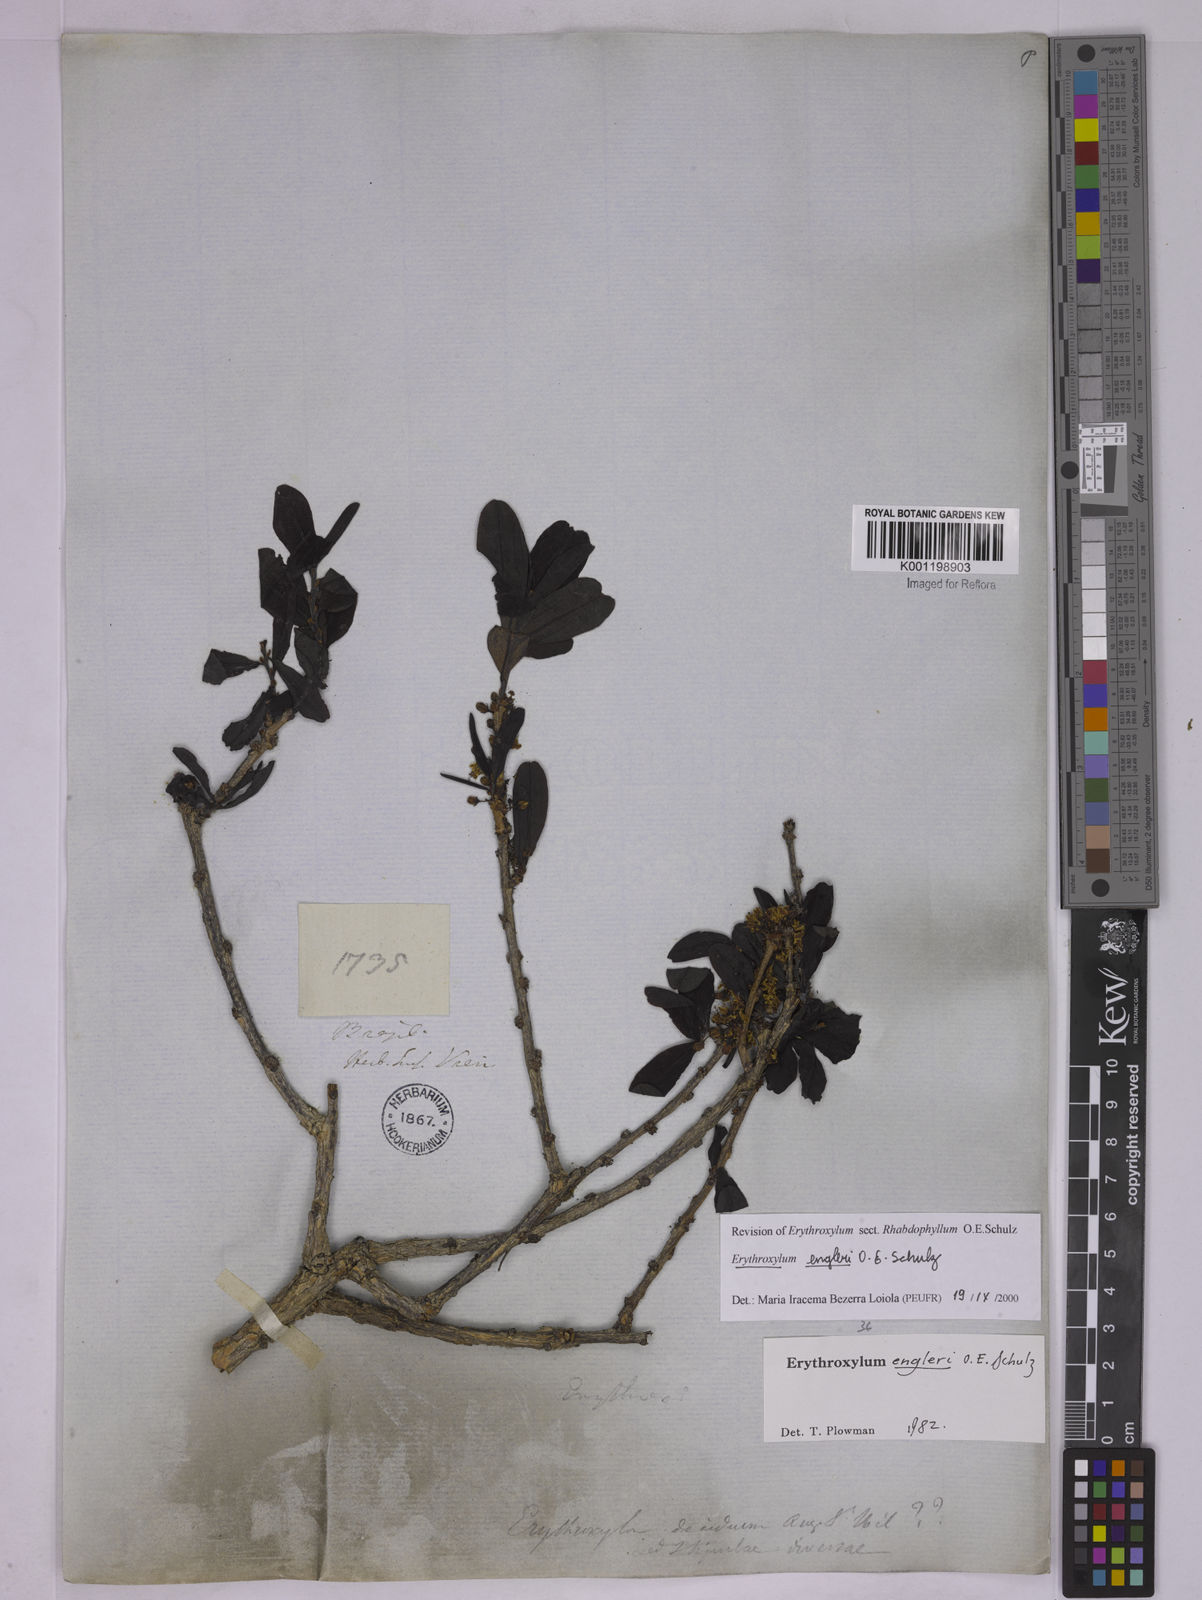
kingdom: Plantae
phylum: Tracheophyta
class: Magnoliopsida
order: Malpighiales
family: Erythroxylaceae
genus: Erythroxylum
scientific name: Erythroxylum engleri
